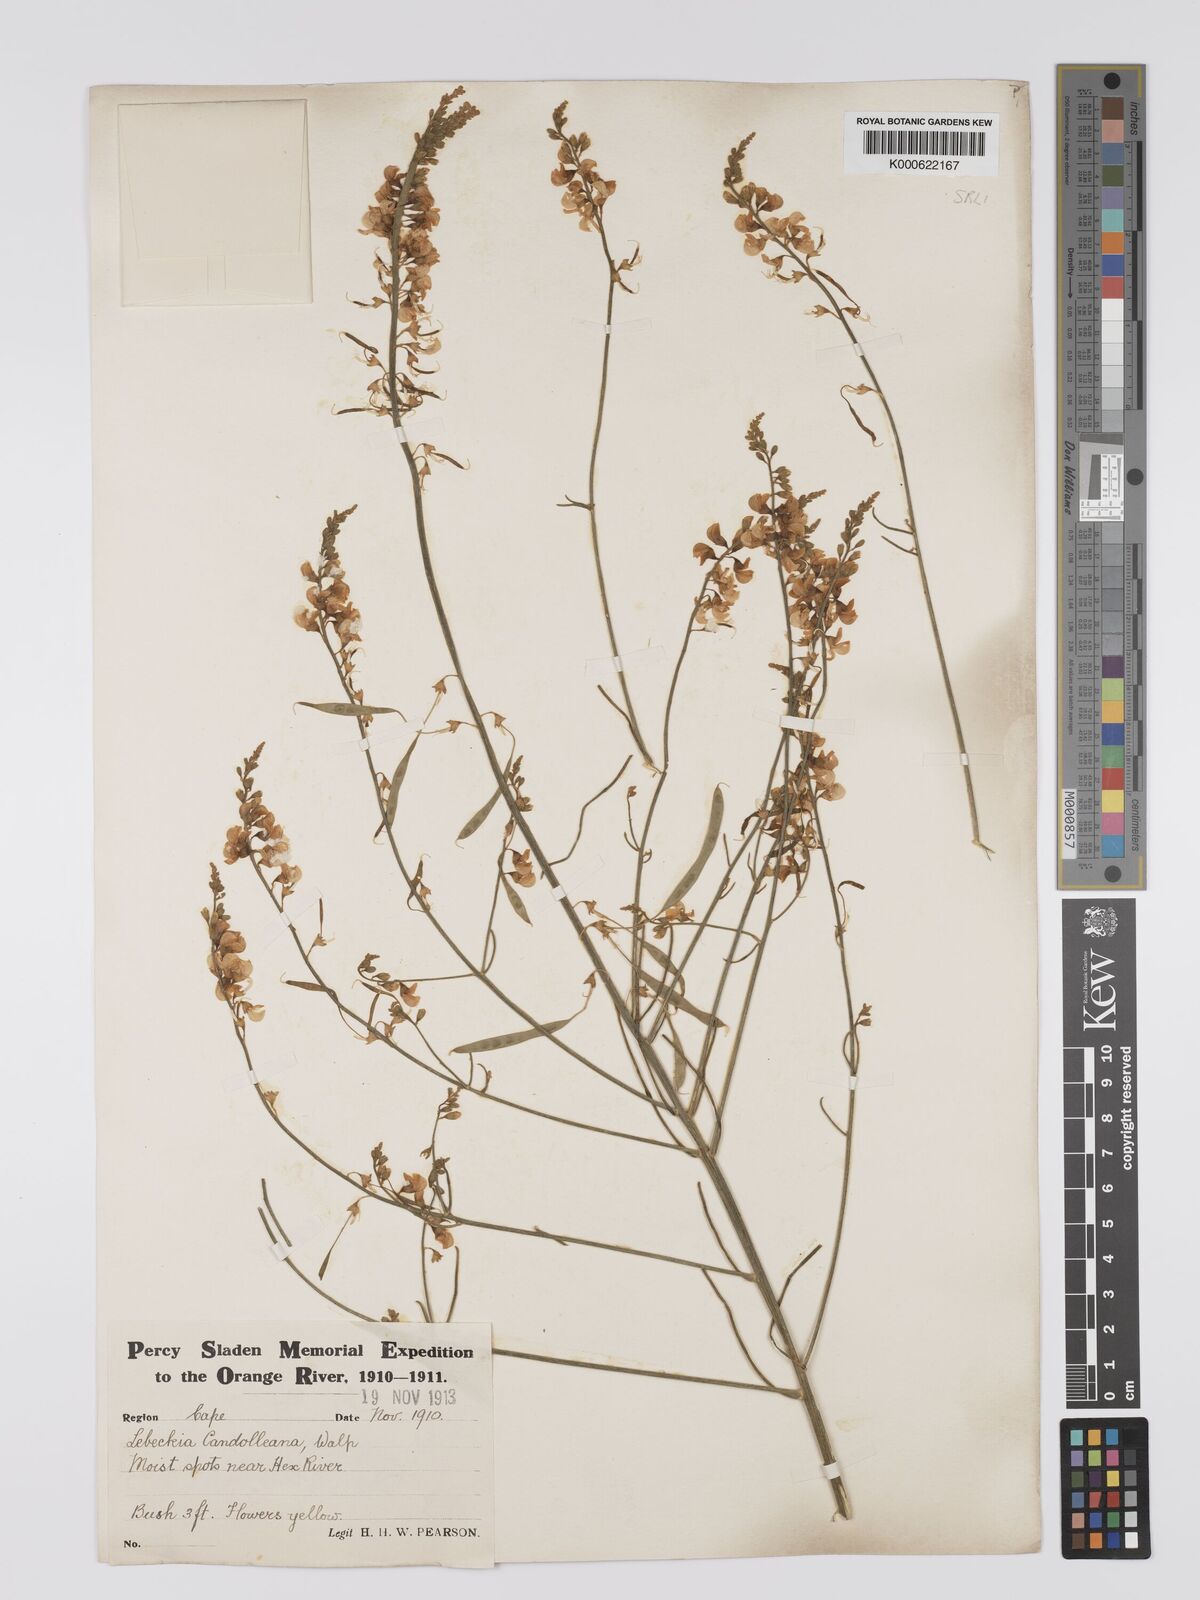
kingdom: Plantae
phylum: Tracheophyta
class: Magnoliopsida
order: Fabales
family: Fabaceae
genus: Lebeckia
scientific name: Lebeckia contaminata
